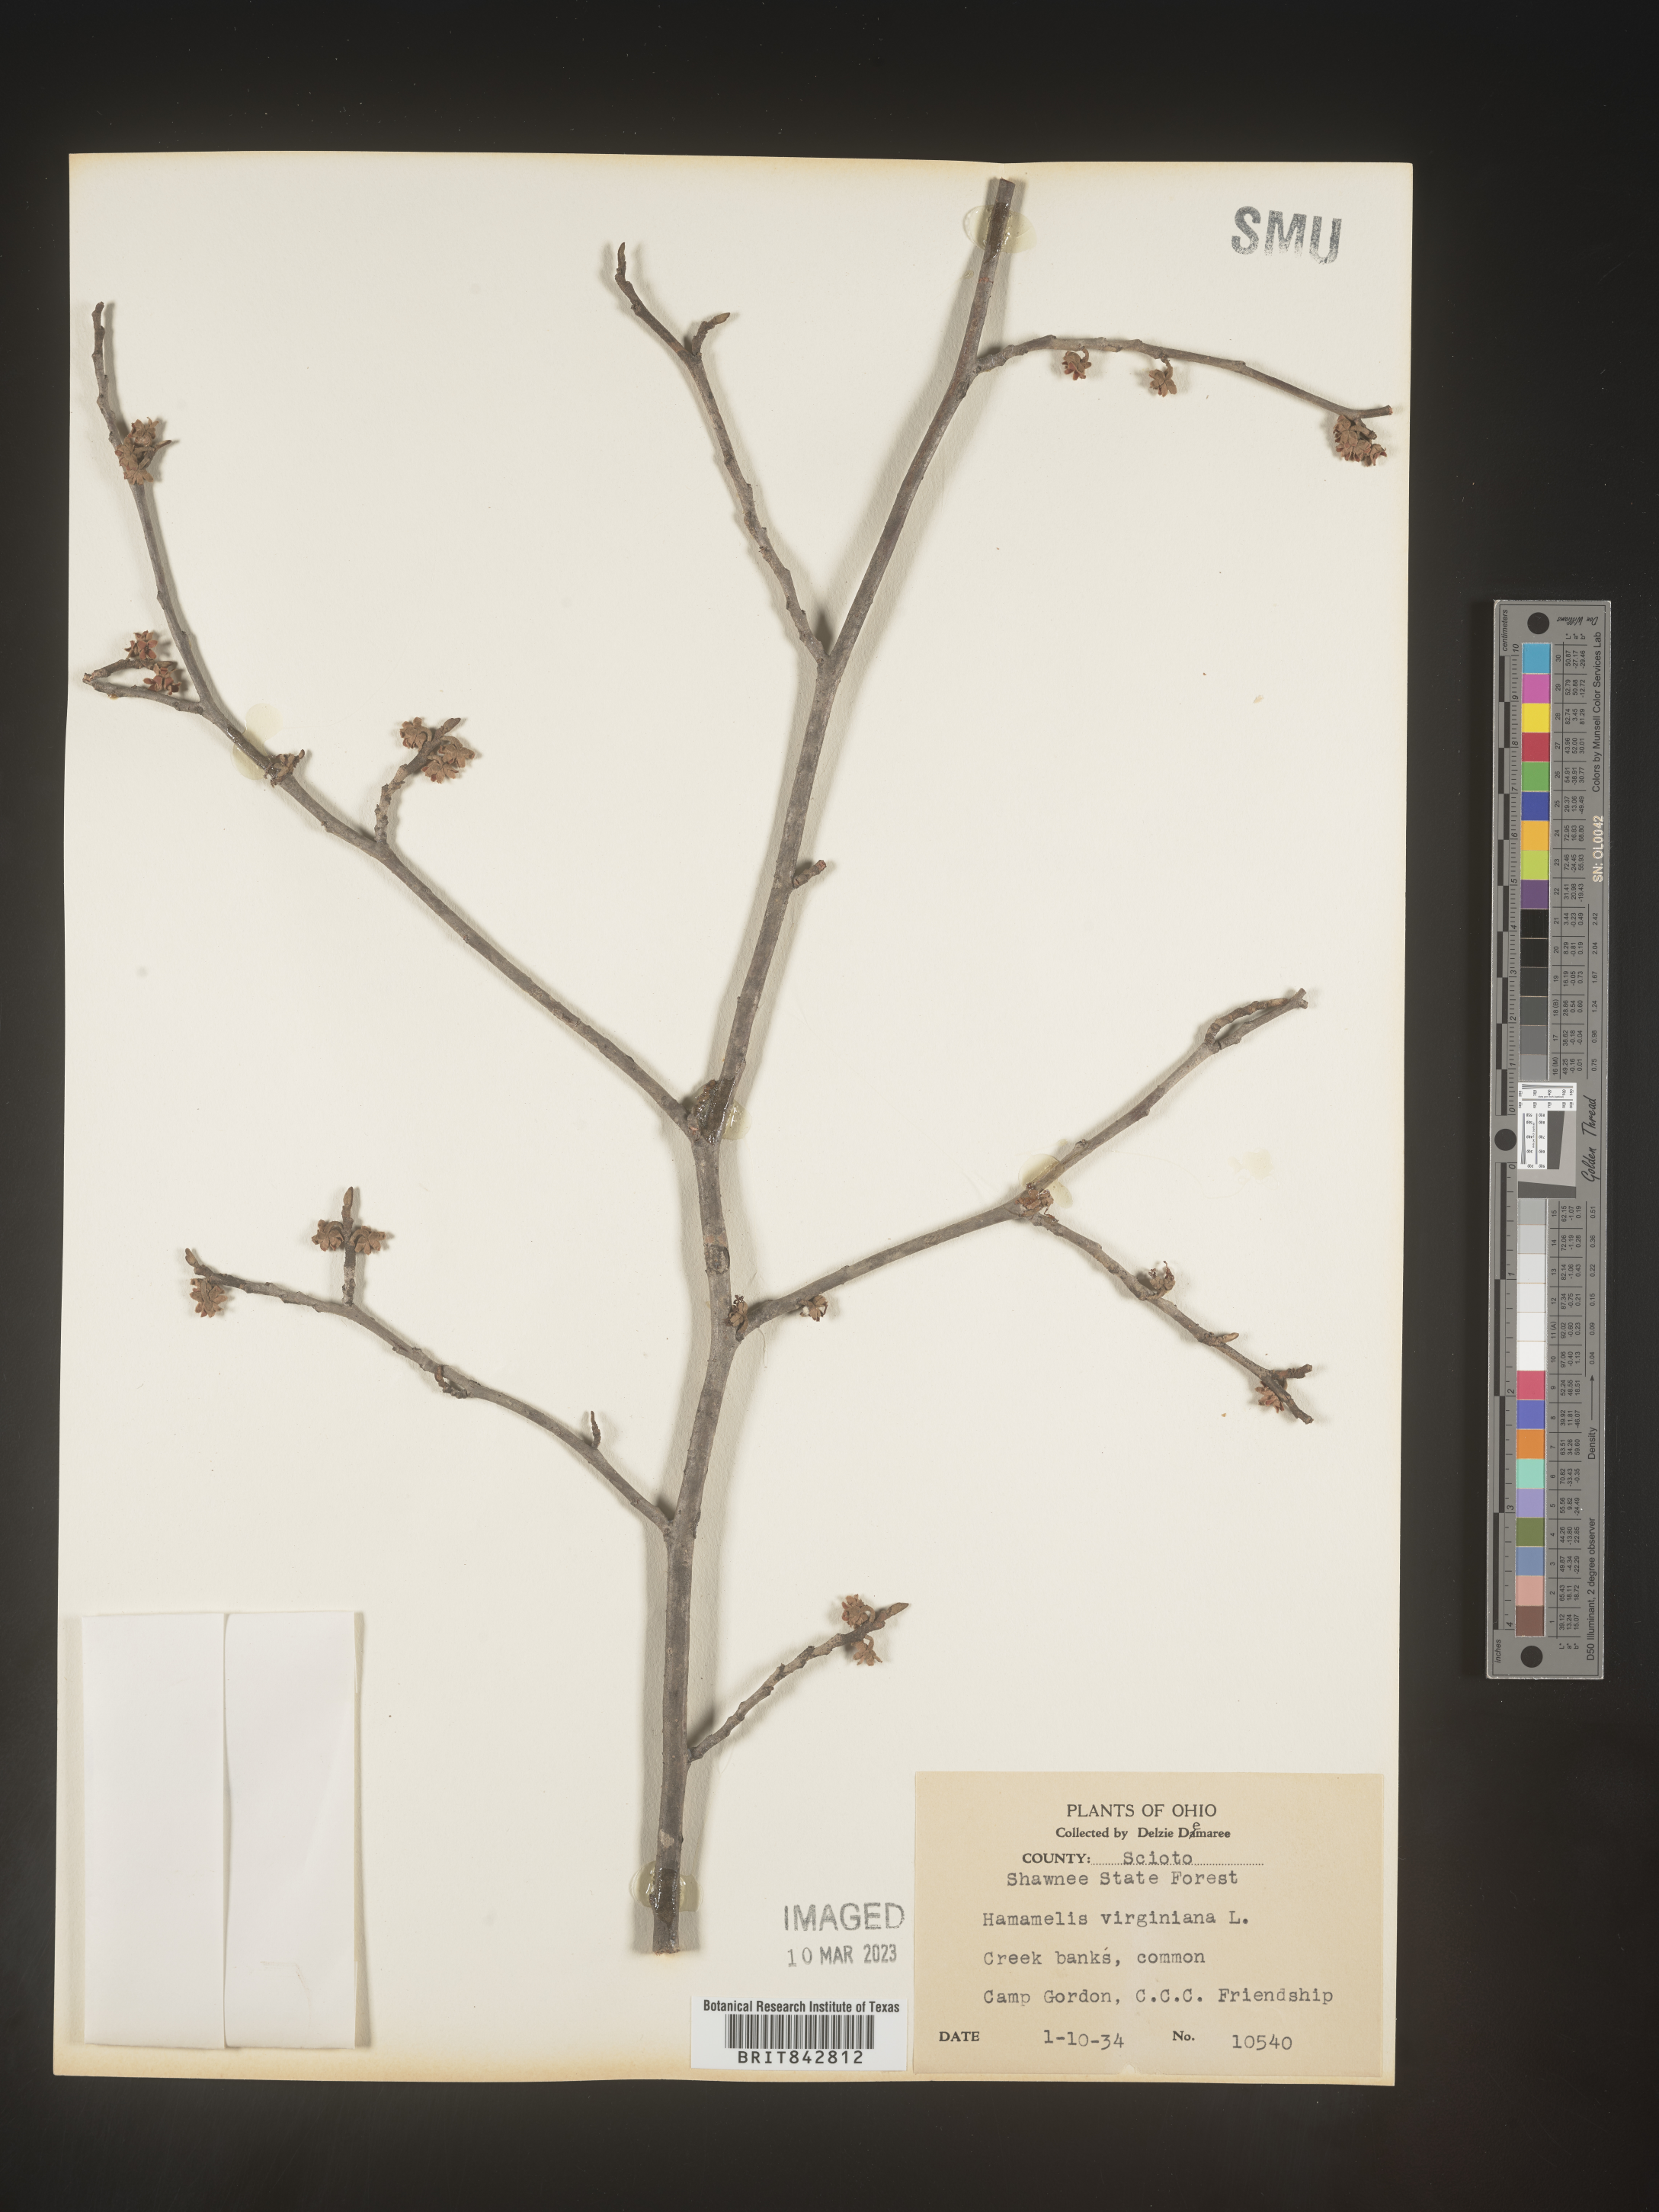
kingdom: Plantae
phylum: Tracheophyta
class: Magnoliopsida
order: Saxifragales
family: Hamamelidaceae
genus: Hamamelis
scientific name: Hamamelis virginiana
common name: Witch-hazel
